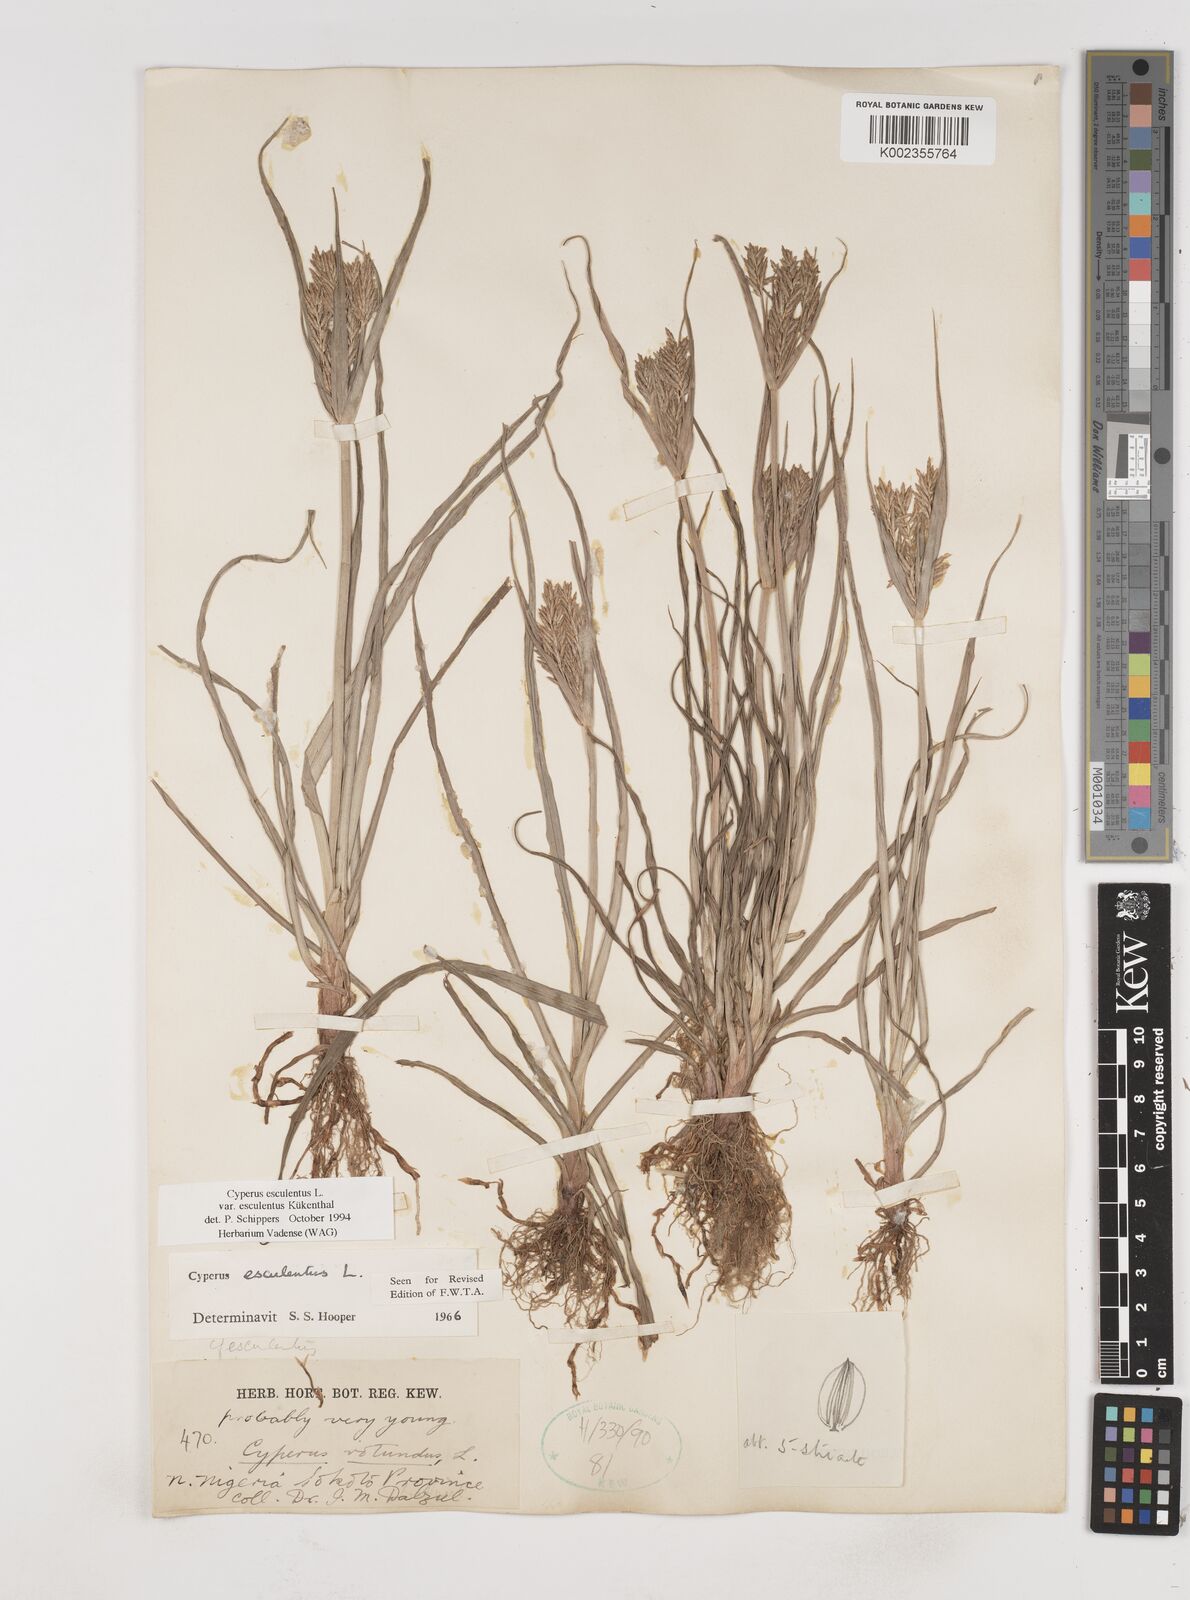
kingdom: Plantae
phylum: Tracheophyta
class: Liliopsida
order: Poales
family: Cyperaceae
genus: Cyperus
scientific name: Cyperus esculentus
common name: Yellow nutsedge
